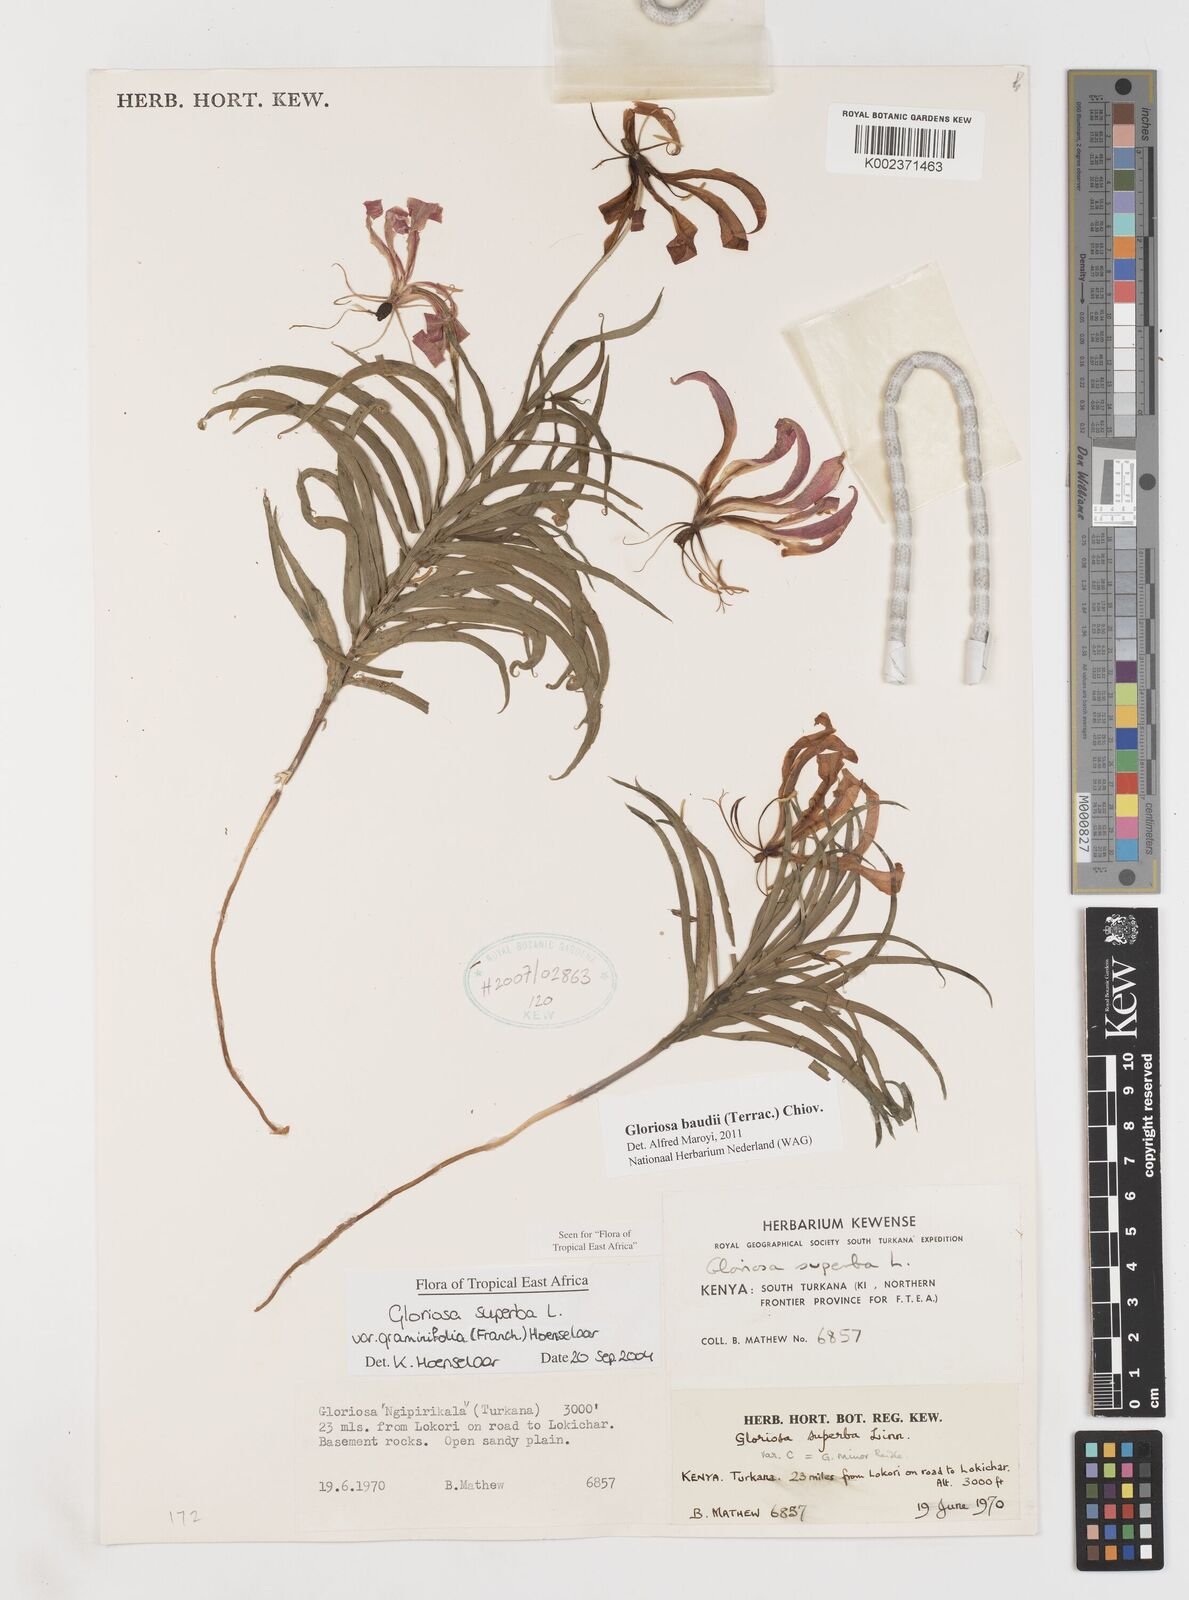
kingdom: Plantae
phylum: Tracheophyta
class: Liliopsida
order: Liliales
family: Colchicaceae
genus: Gloriosa
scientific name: Gloriosa baudii
